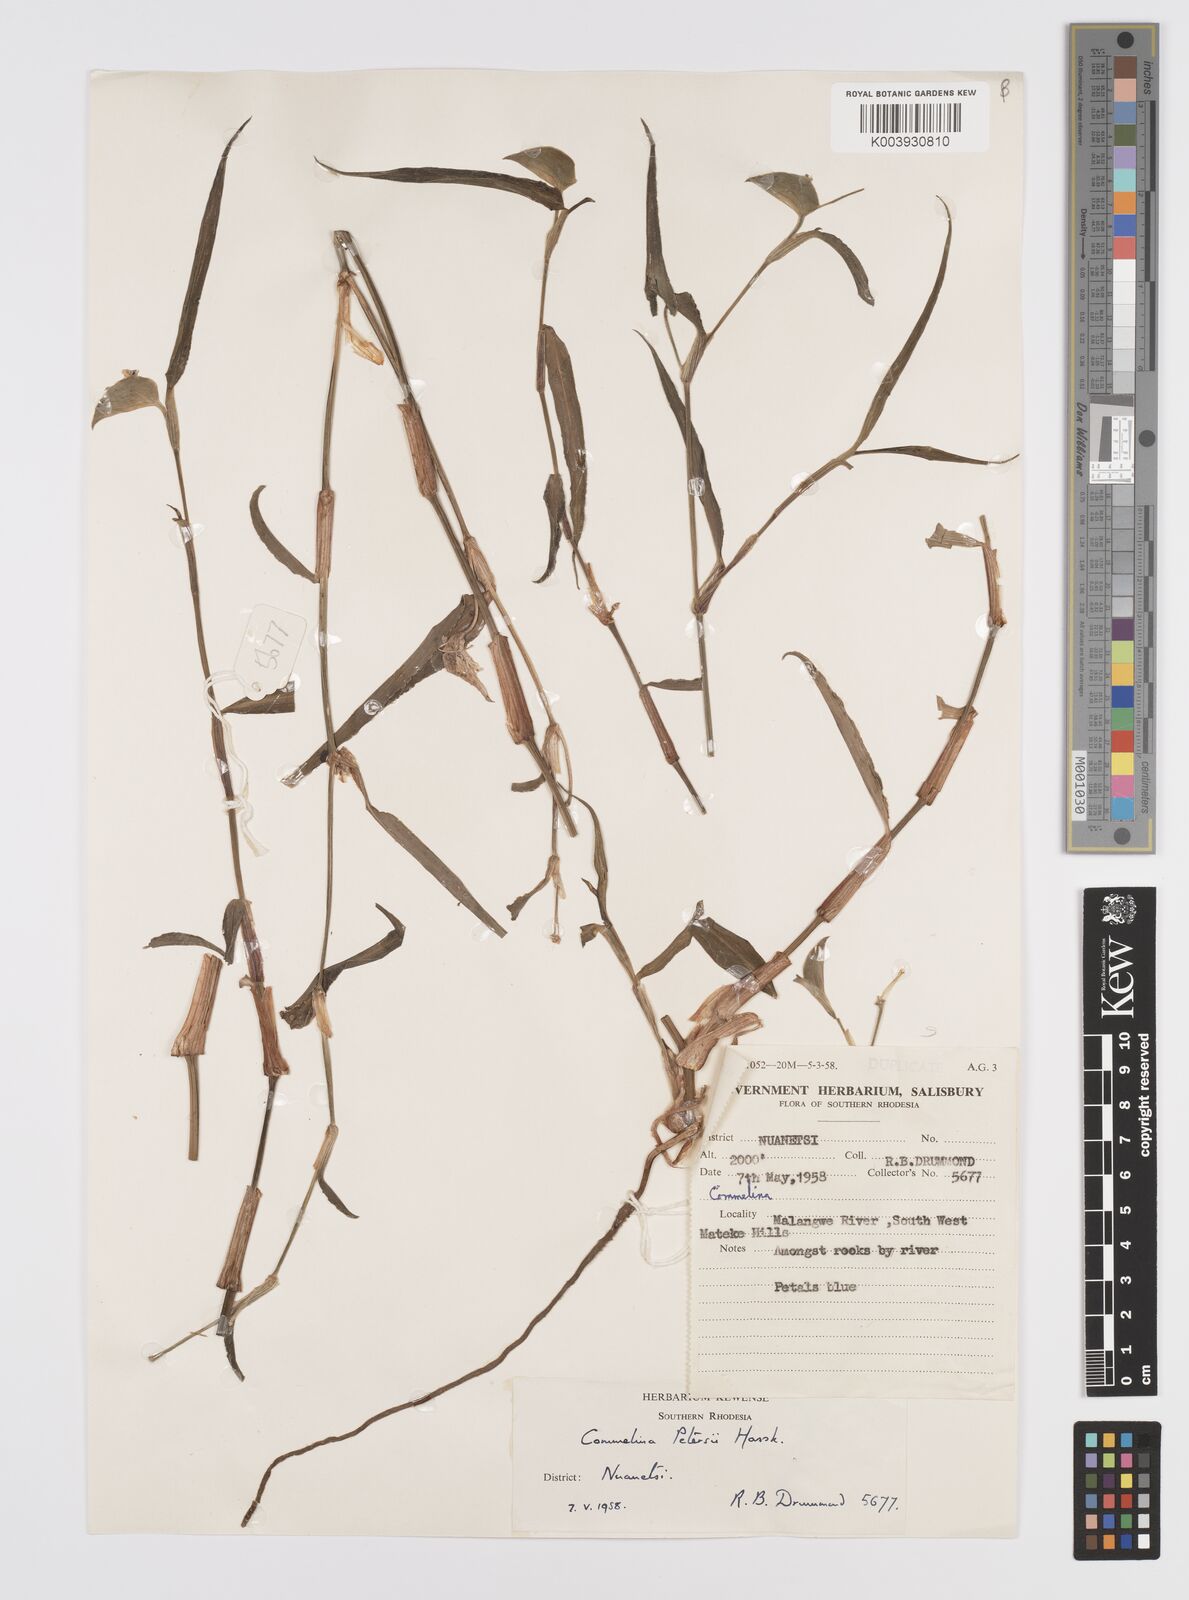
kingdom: Plantae
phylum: Tracheophyta
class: Liliopsida
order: Commelinales
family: Commelinaceae
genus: Commelina
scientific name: Commelina petersii
